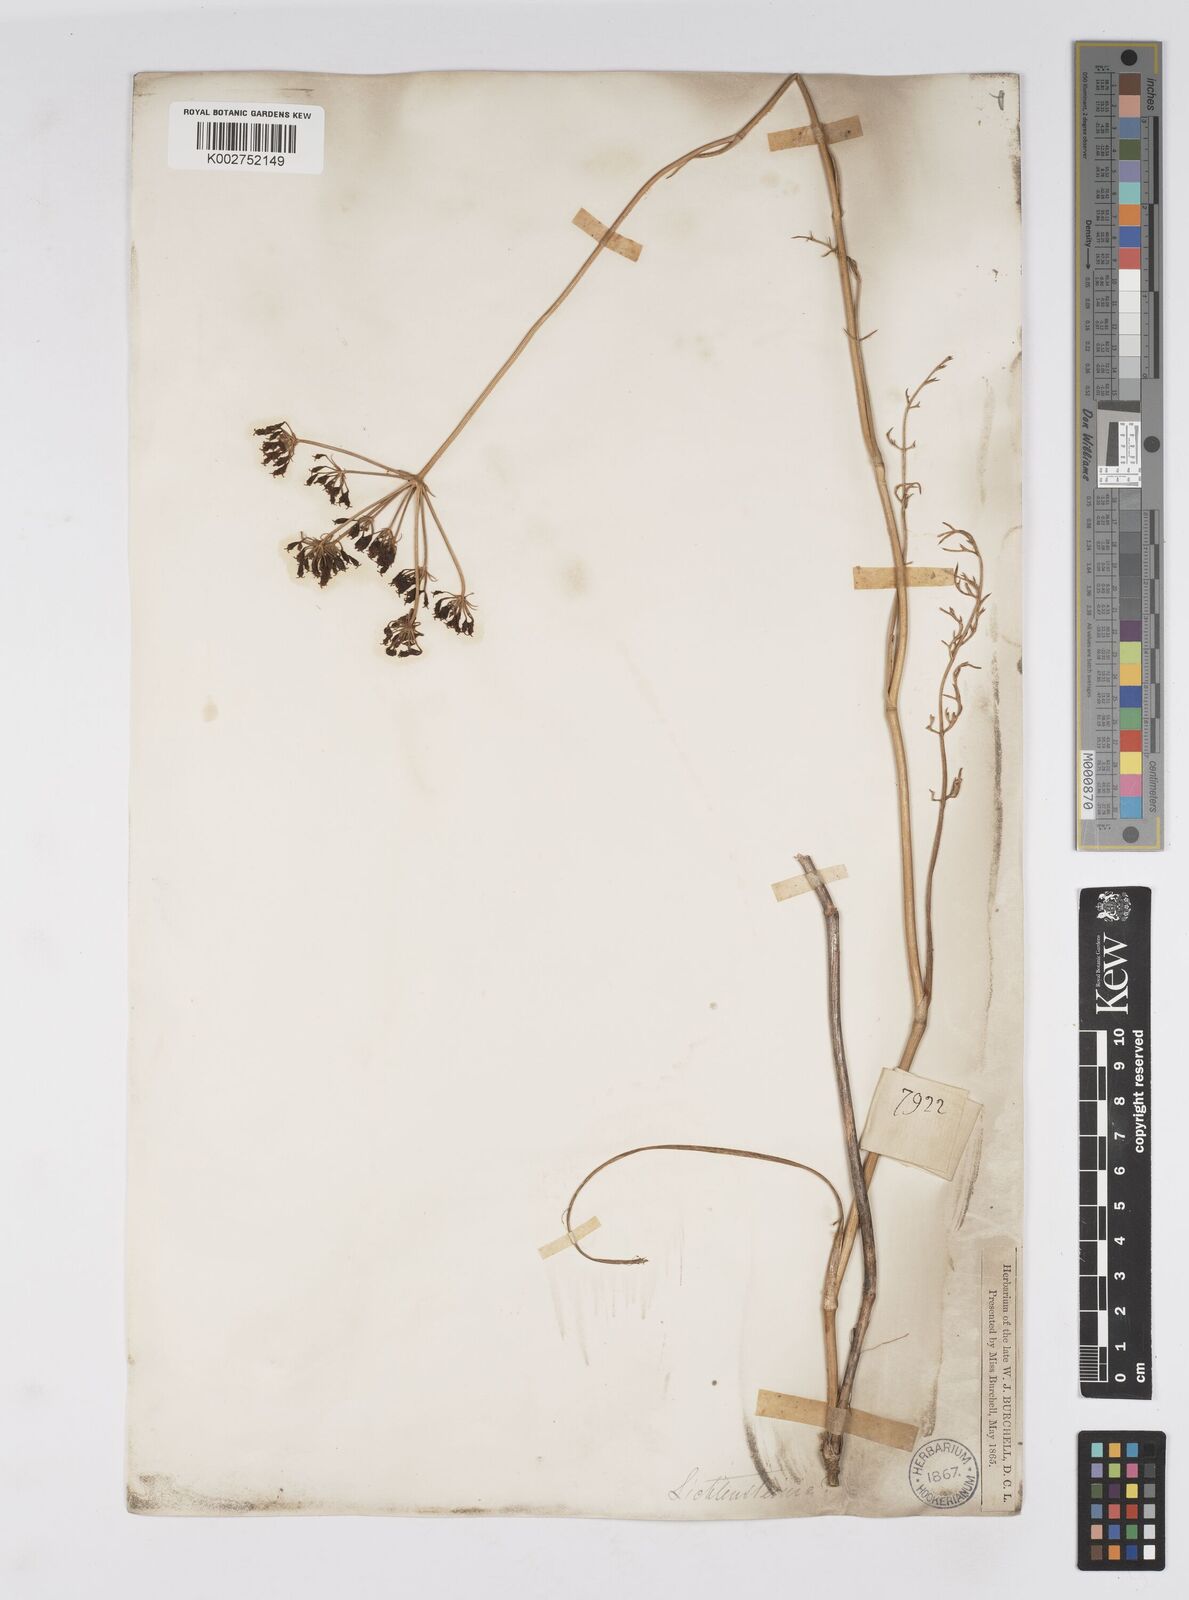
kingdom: Plantae
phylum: Tracheophyta
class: Magnoliopsida
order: Apiales
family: Apiaceae
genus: Lichtensteinia
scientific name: Lichtensteinia
